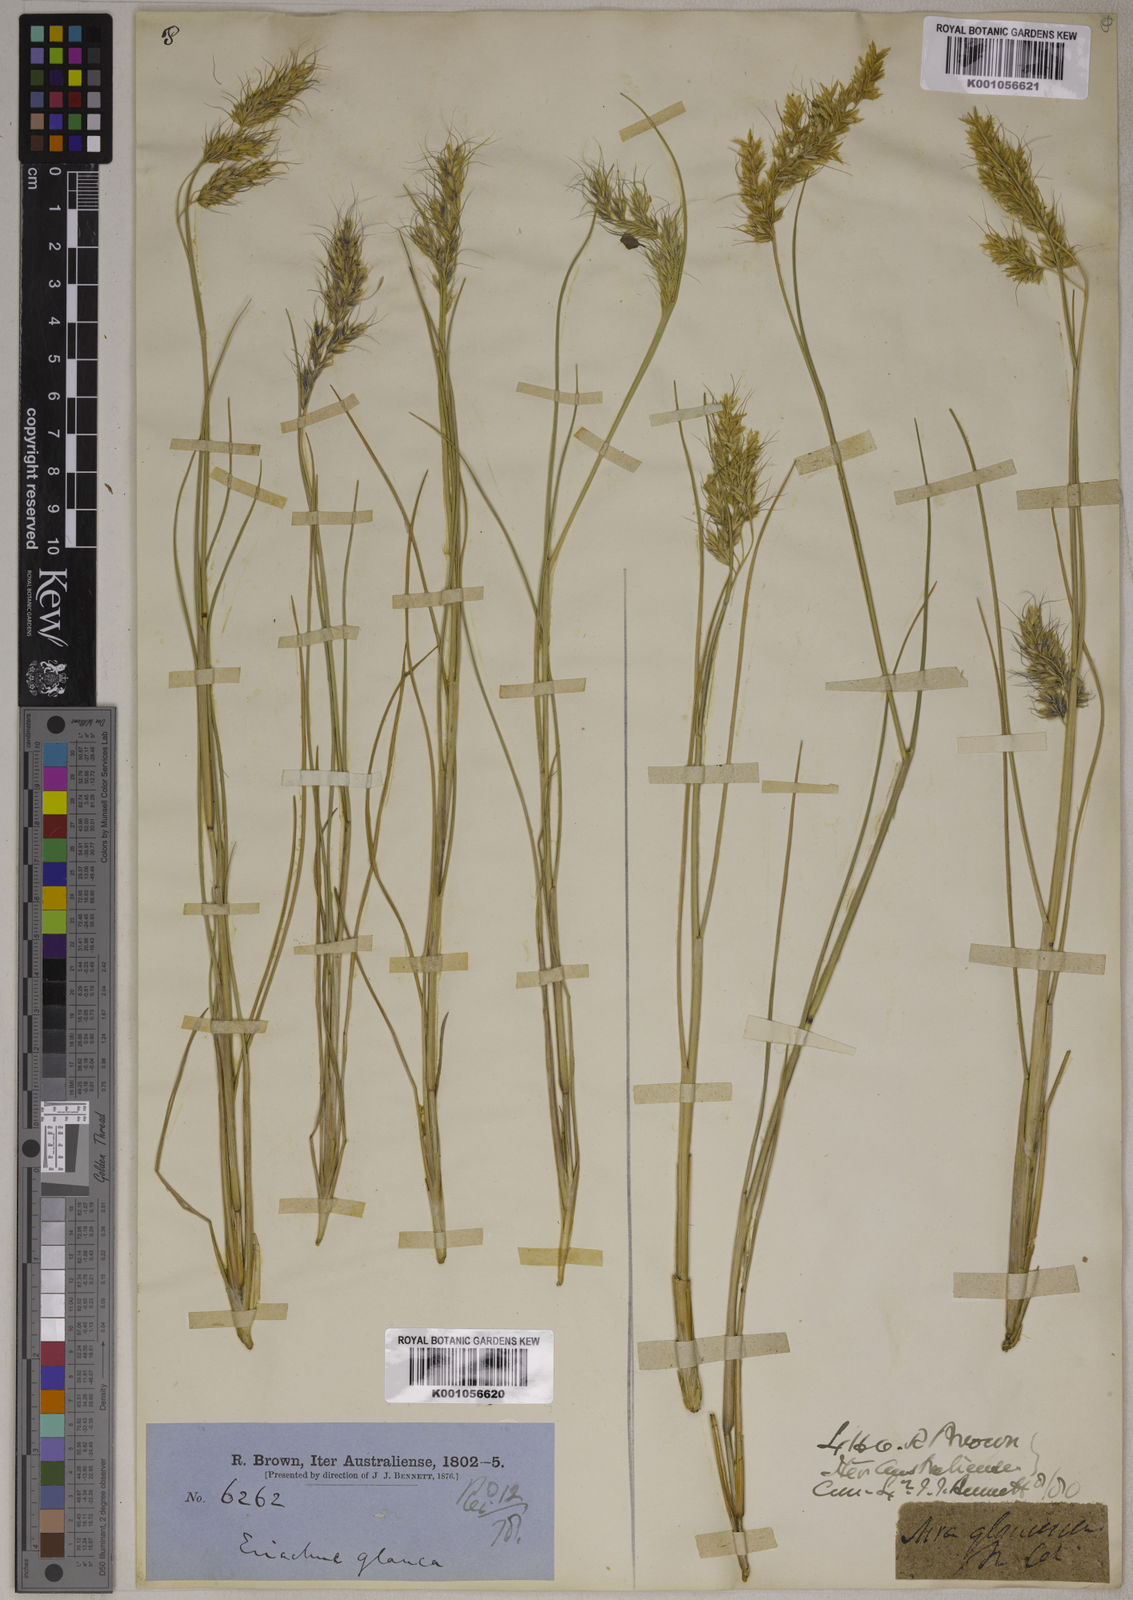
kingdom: Plantae
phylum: Tracheophyta
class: Liliopsida
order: Poales
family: Poaceae
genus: Eriachne
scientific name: Eriachne glauca
